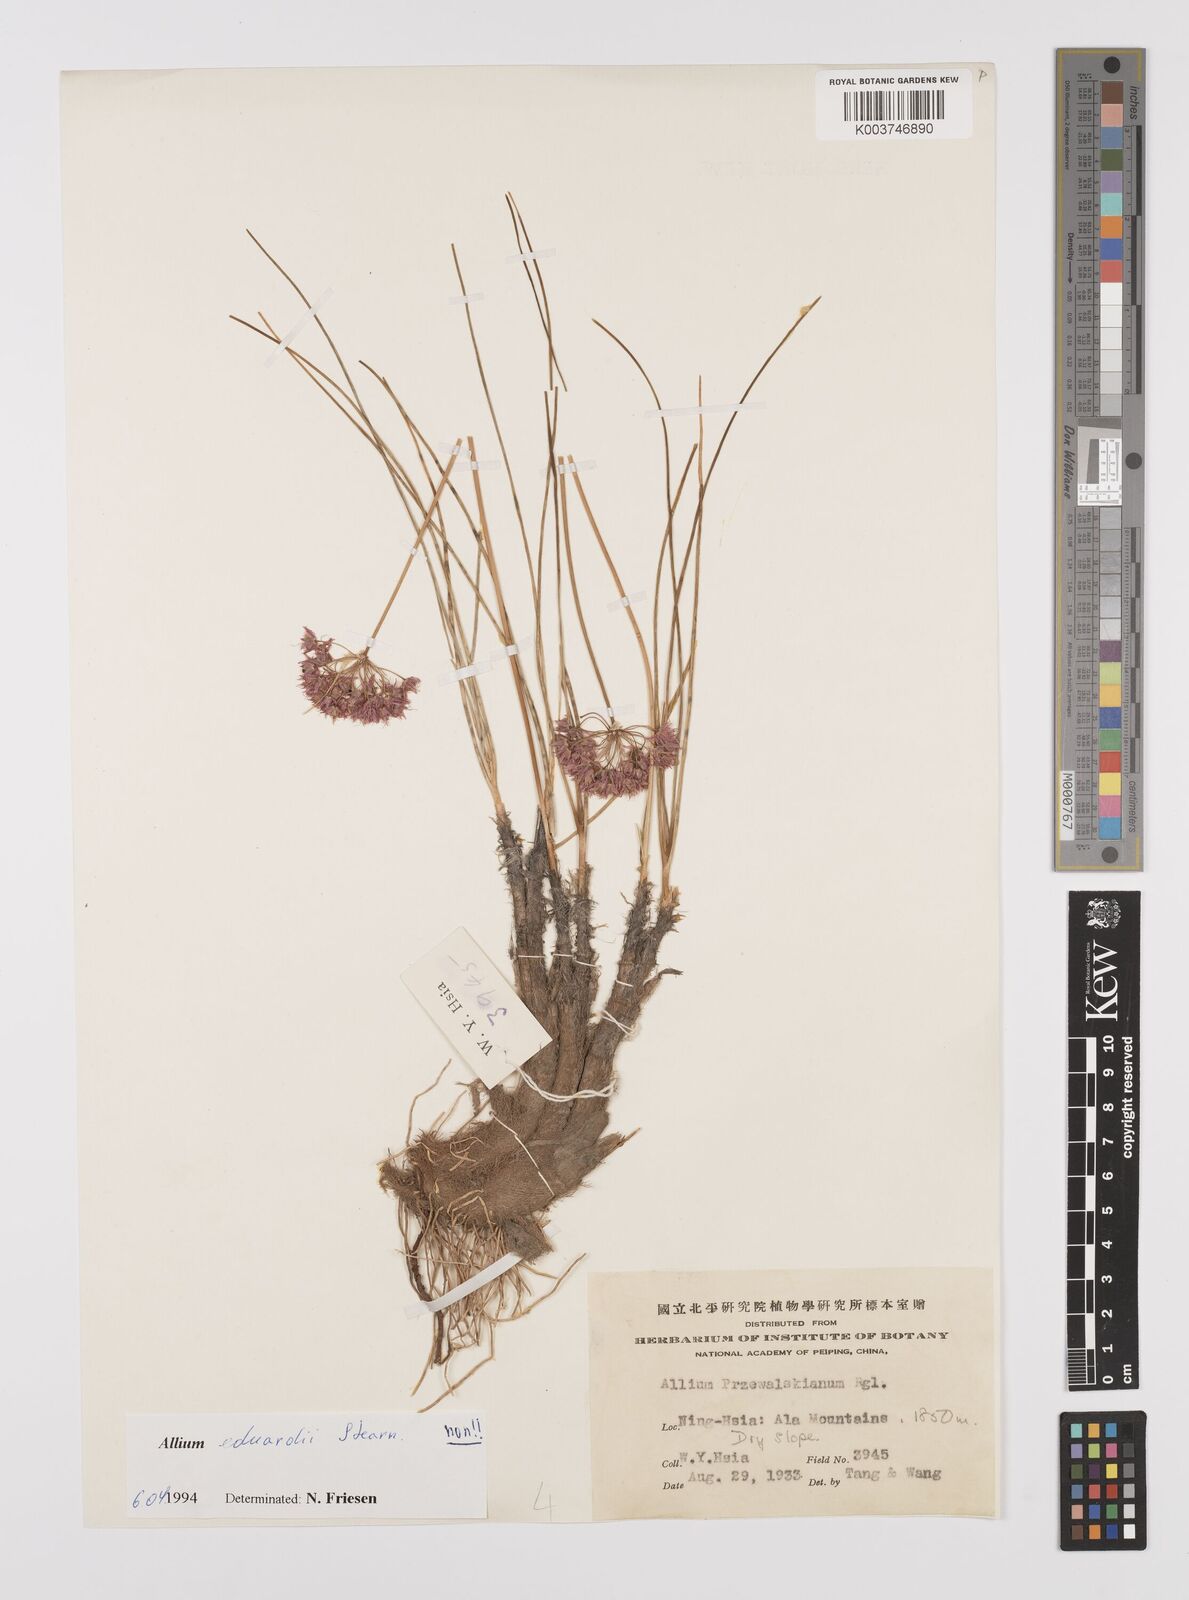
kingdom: Plantae
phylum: Tracheophyta
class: Liliopsida
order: Asparagales
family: Amaryllidaceae
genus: Allium
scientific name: Allium eduardi
